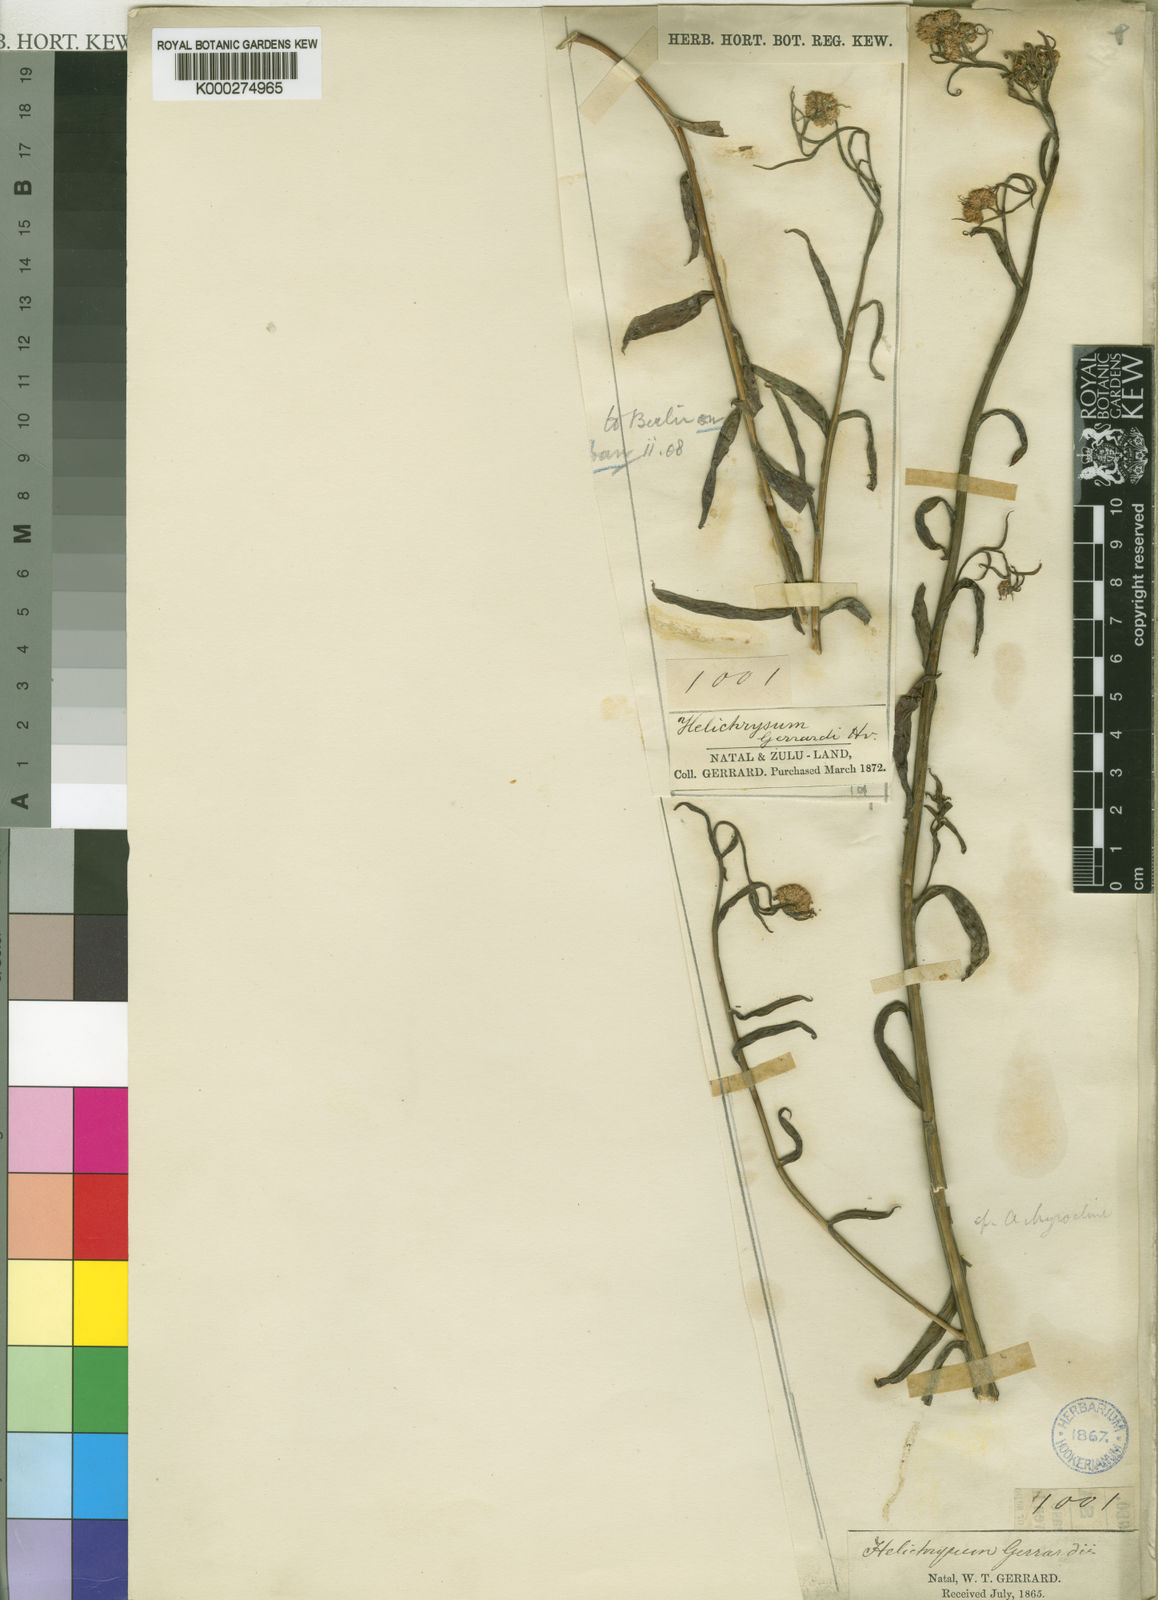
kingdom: Plantae
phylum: Tracheophyta
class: Magnoliopsida
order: Asterales
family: Asteraceae
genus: Helichrysum
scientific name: Helichrysum stenopterum
